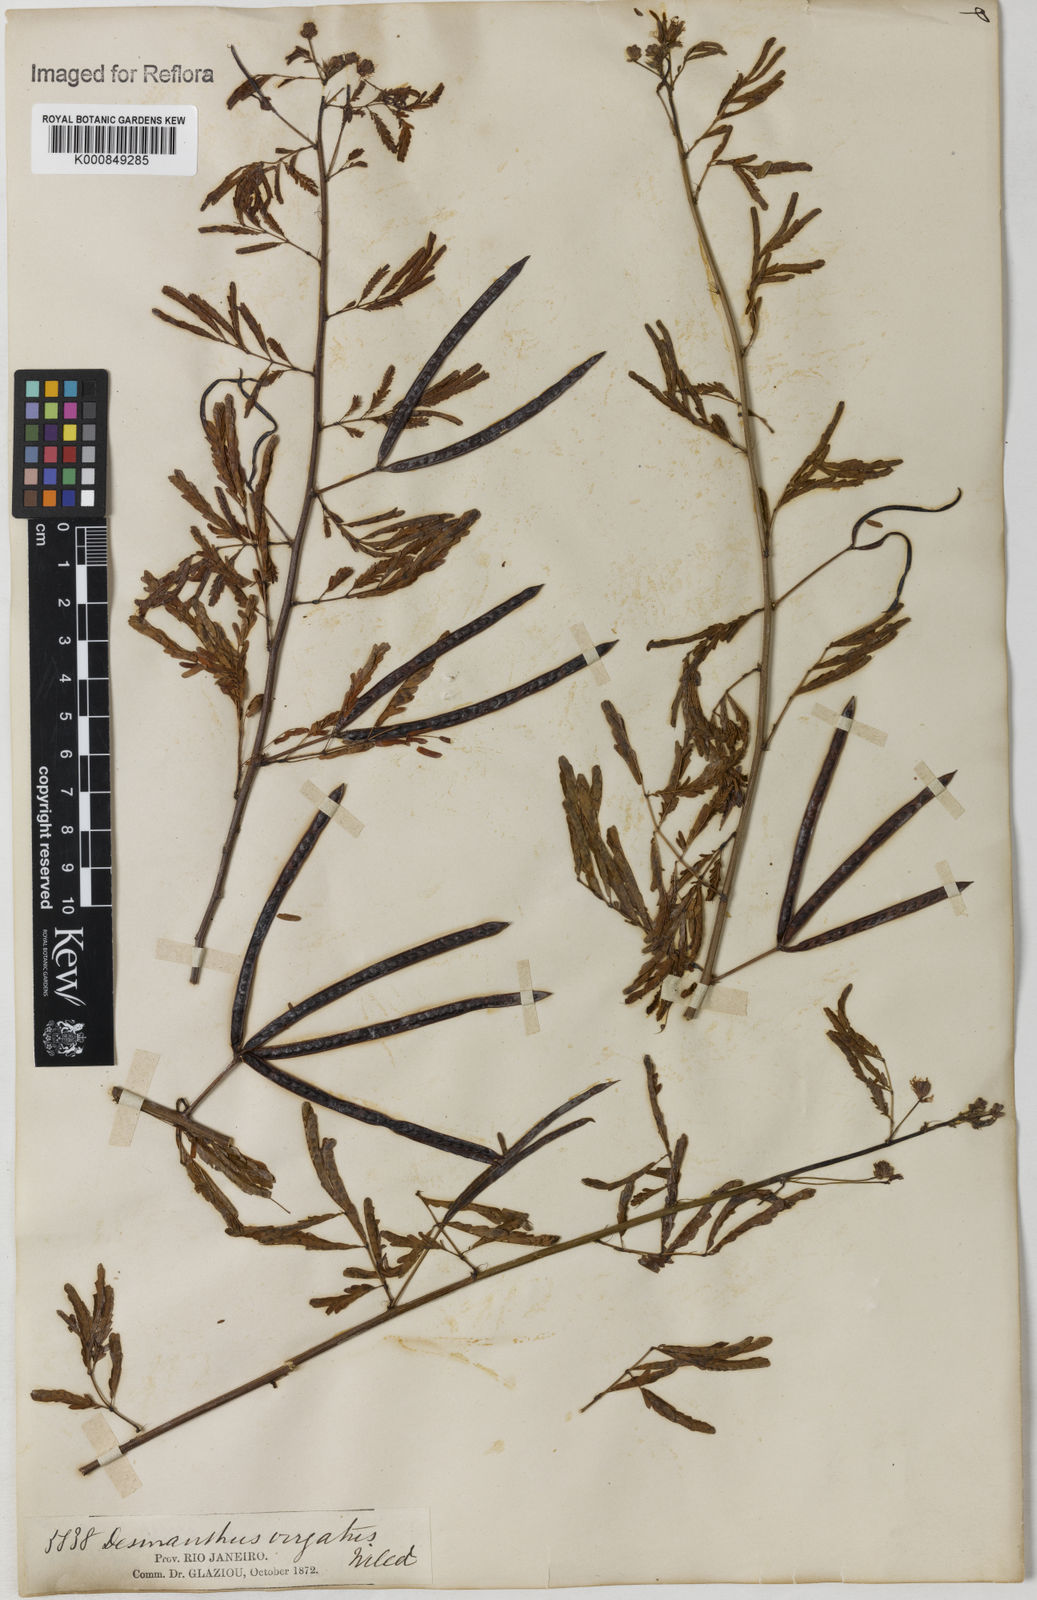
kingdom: Plantae
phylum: Tracheophyta
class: Magnoliopsida
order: Fabales
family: Fabaceae
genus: Desmanthus
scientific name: Desmanthus virgatus
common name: Wild tantan
